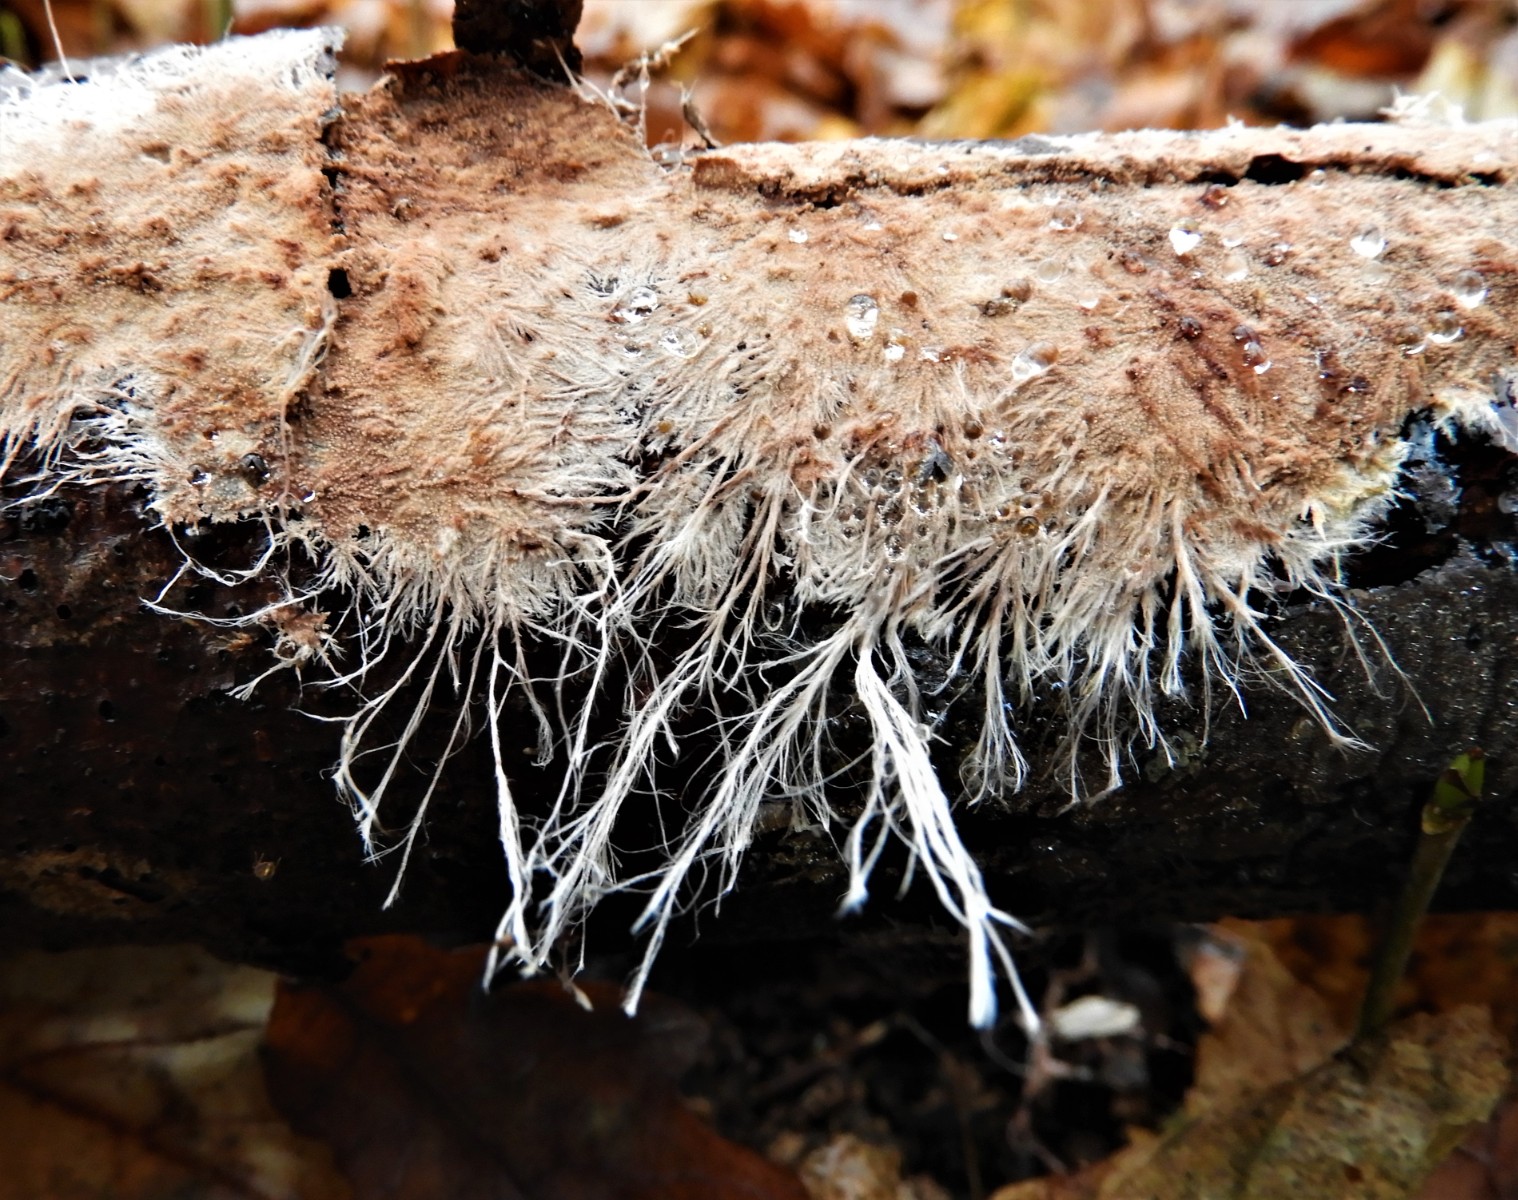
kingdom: Fungi
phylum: Basidiomycota
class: Agaricomycetes
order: Polyporales
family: Steccherinaceae
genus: Steccherinum
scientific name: Steccherinum fimbriatum
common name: trådet skønpig
